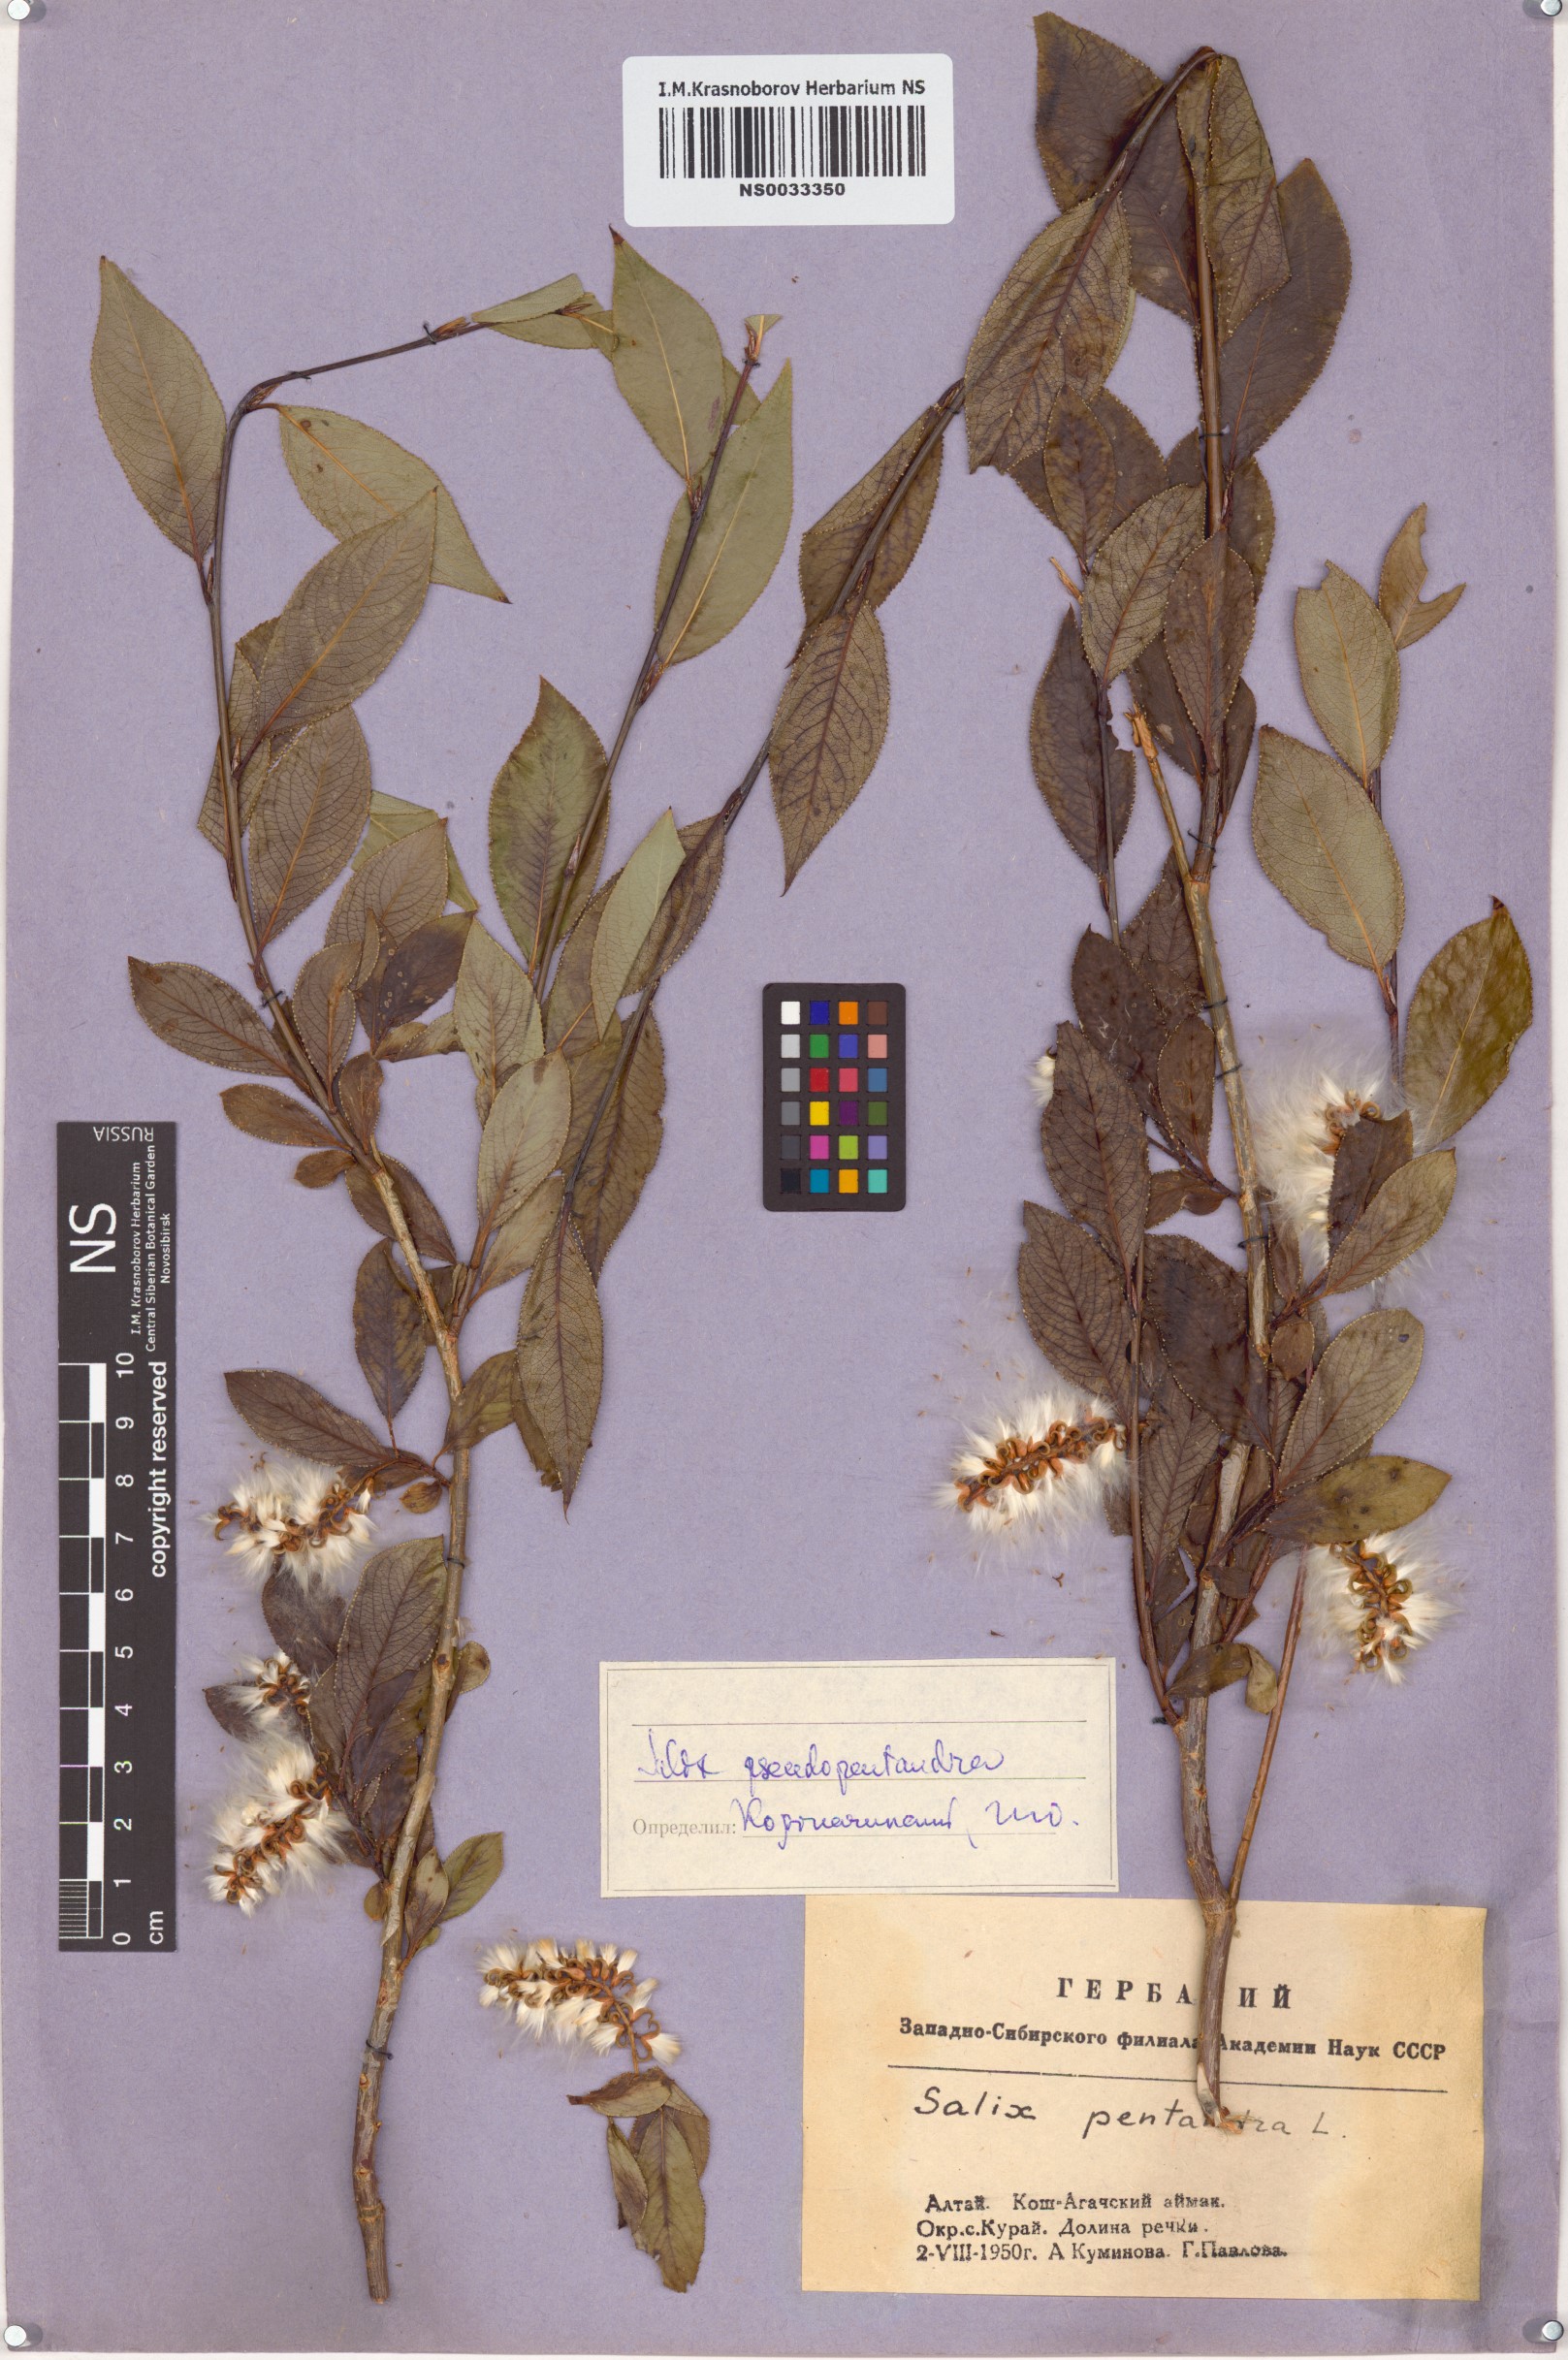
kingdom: Plantae
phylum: Tracheophyta
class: Magnoliopsida
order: Malpighiales
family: Salicaceae
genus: Salix
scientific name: Salix pseudopentandra
